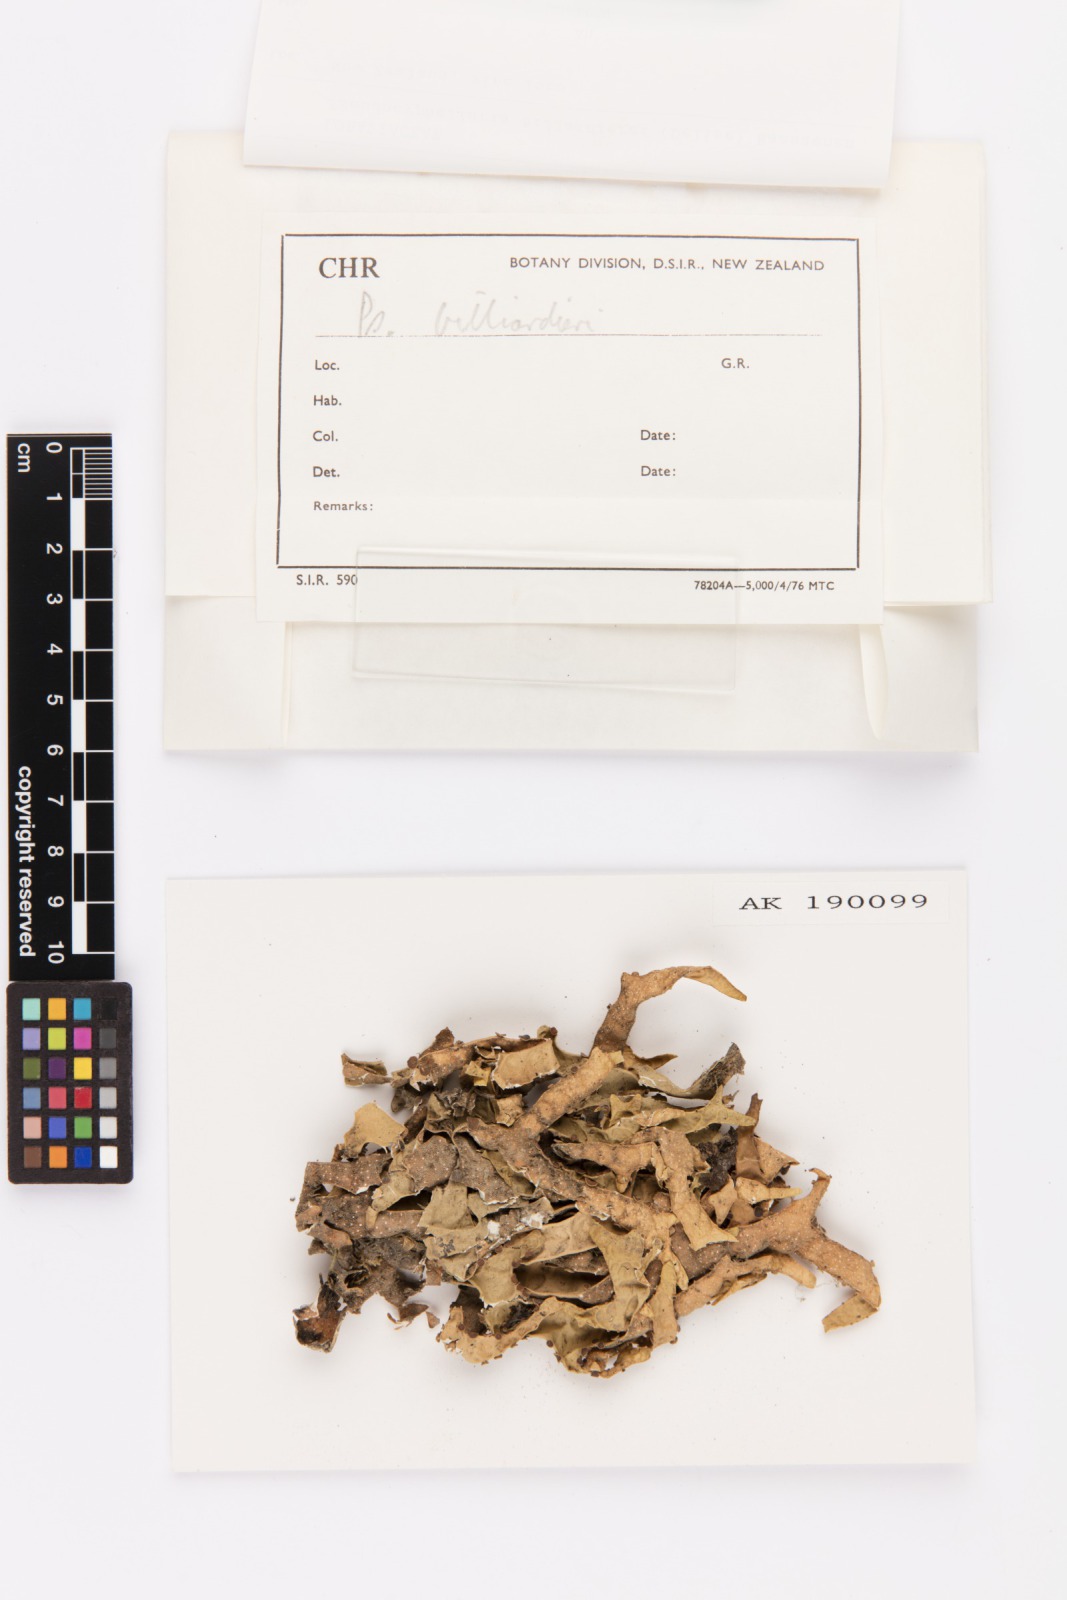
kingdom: Fungi
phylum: Ascomycota
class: Lecanoromycetes
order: Peltigerales
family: Lobariaceae
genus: Pseudocyphellaria
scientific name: Pseudocyphellaria billardierei
